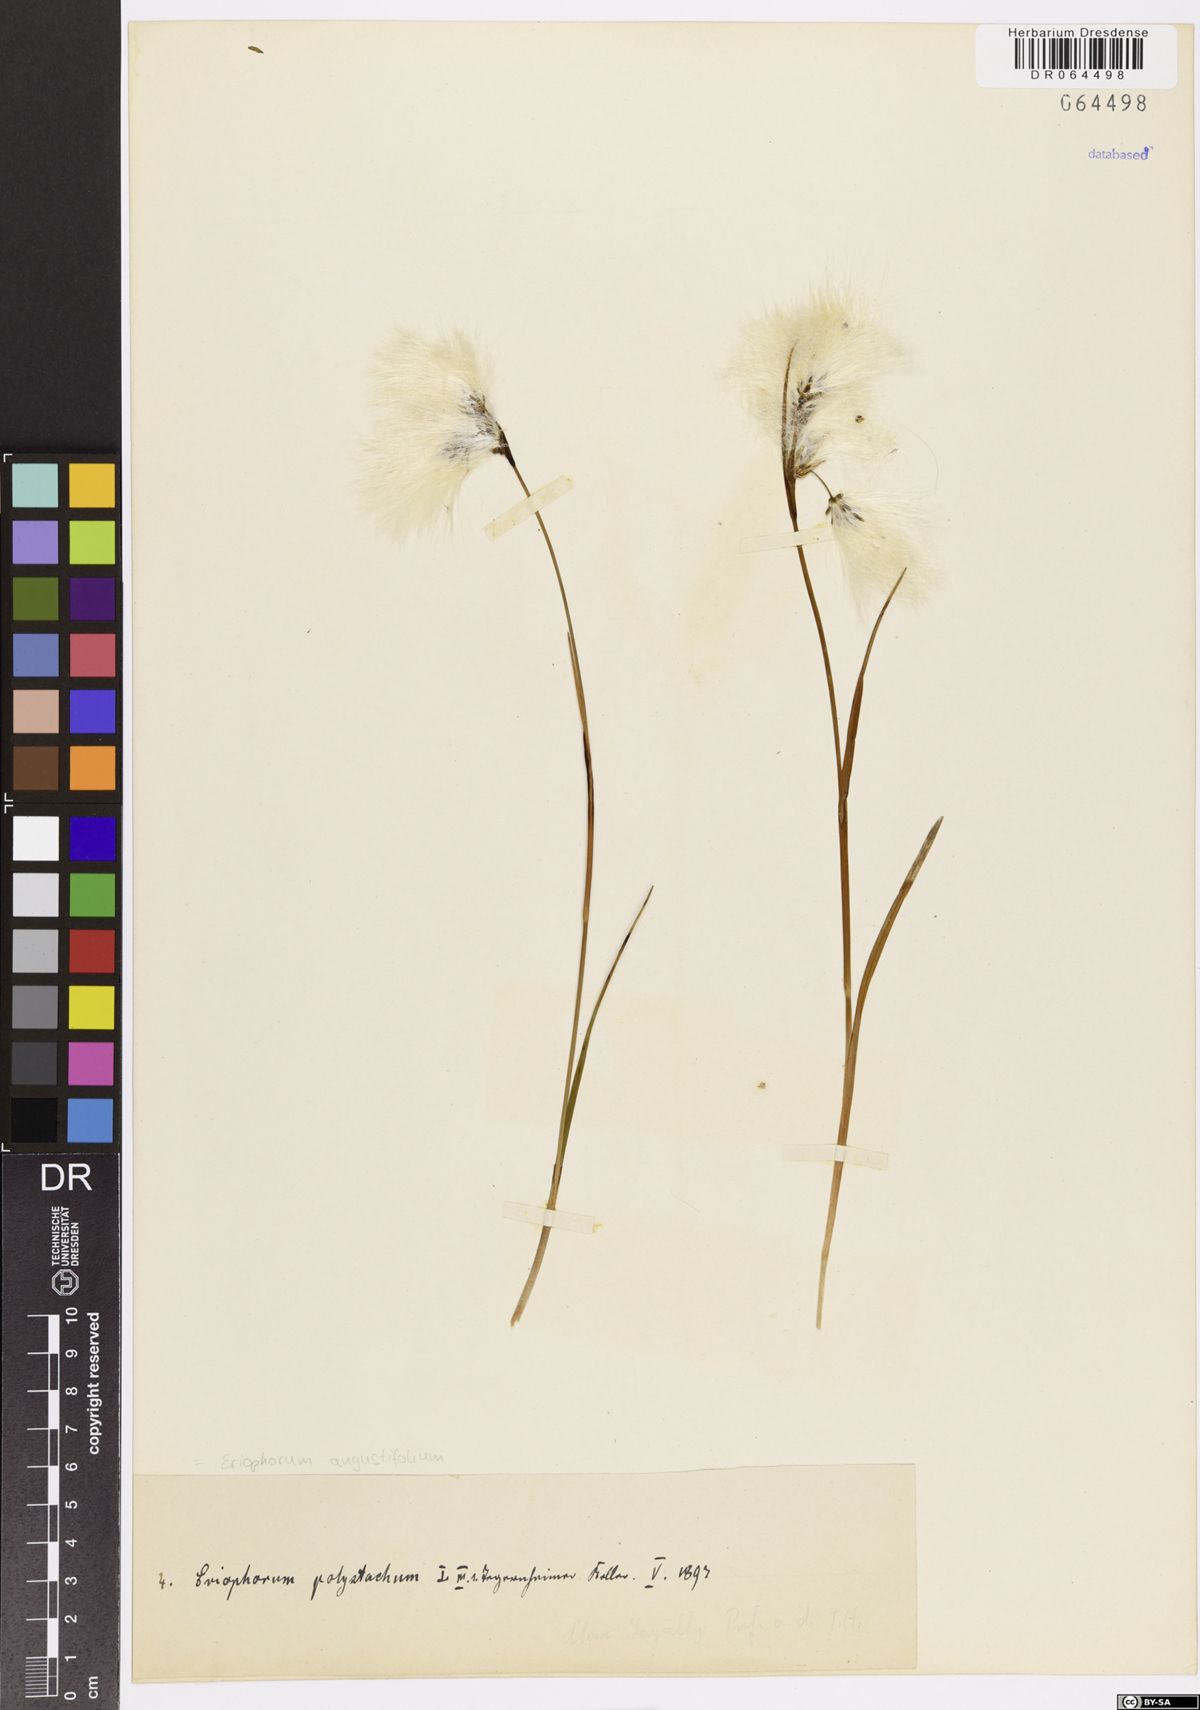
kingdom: Plantae
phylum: Tracheophyta
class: Liliopsida
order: Poales
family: Cyperaceae
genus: Eriophorum
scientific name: Eriophorum angustifolium
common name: Common cottongrass
